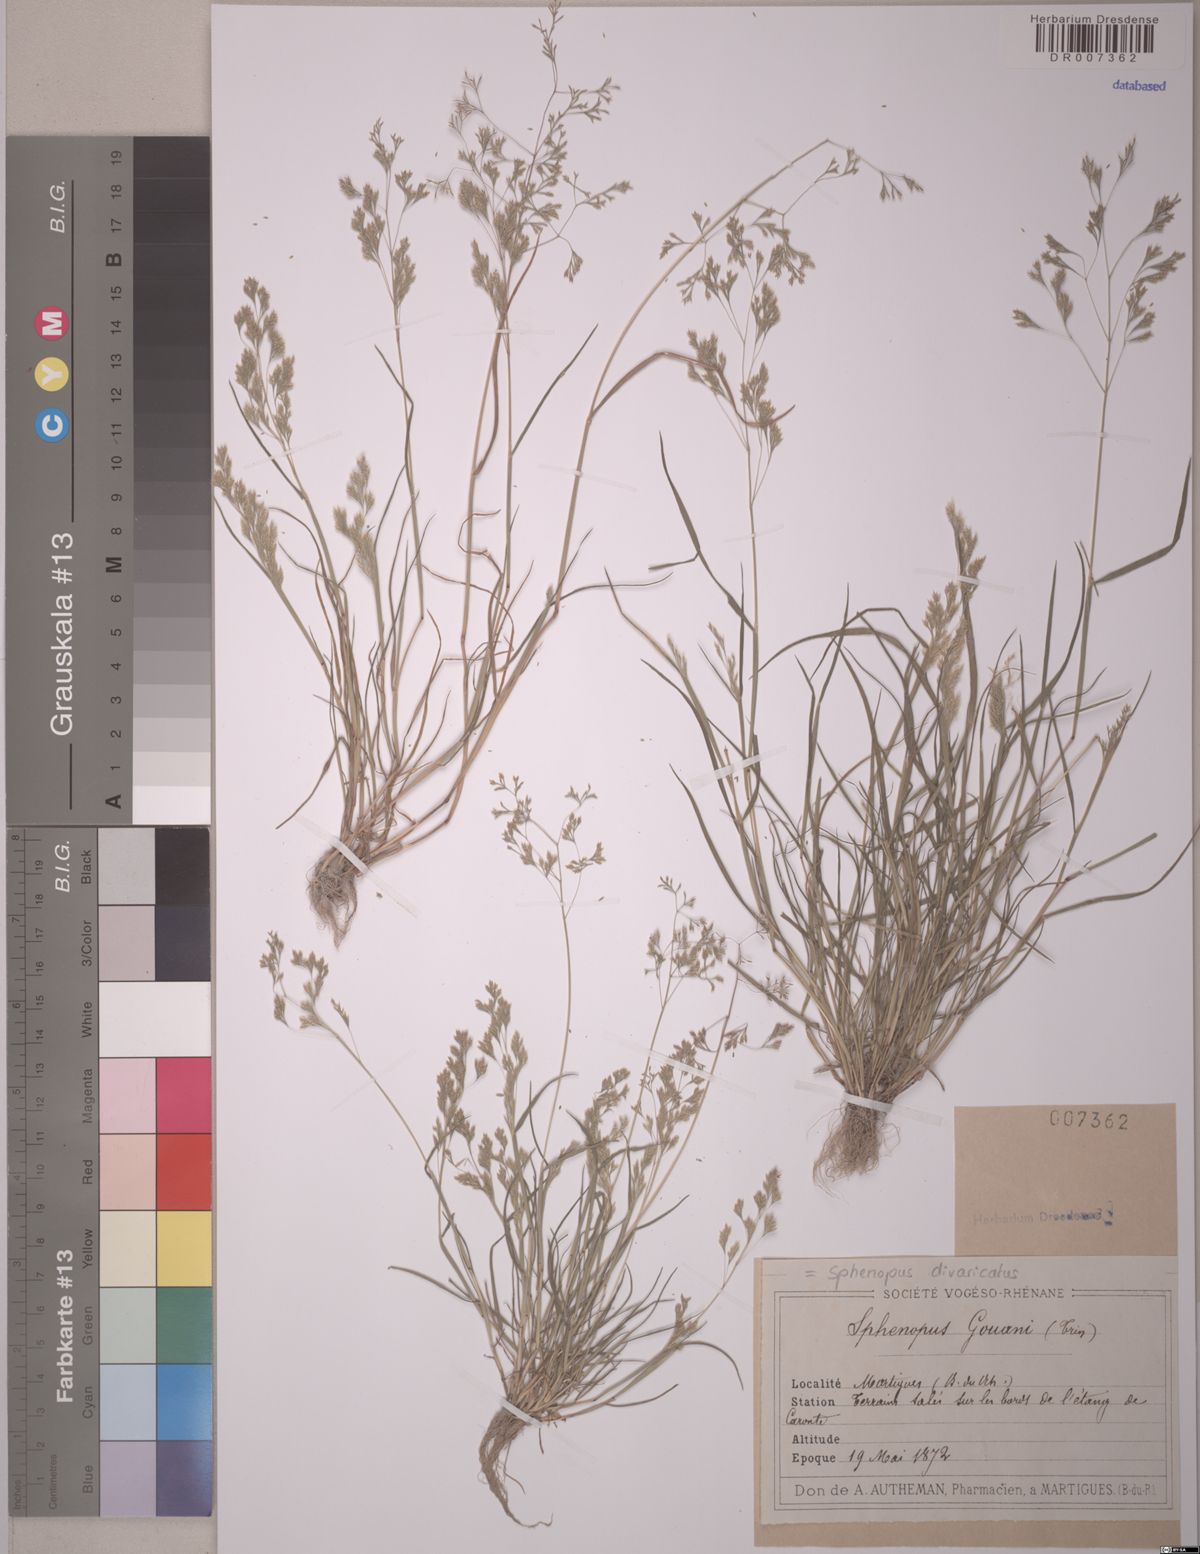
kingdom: Plantae
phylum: Tracheophyta
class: Liliopsida
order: Poales
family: Poaceae
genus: Sphenopus
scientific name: Sphenopus divaricatus
